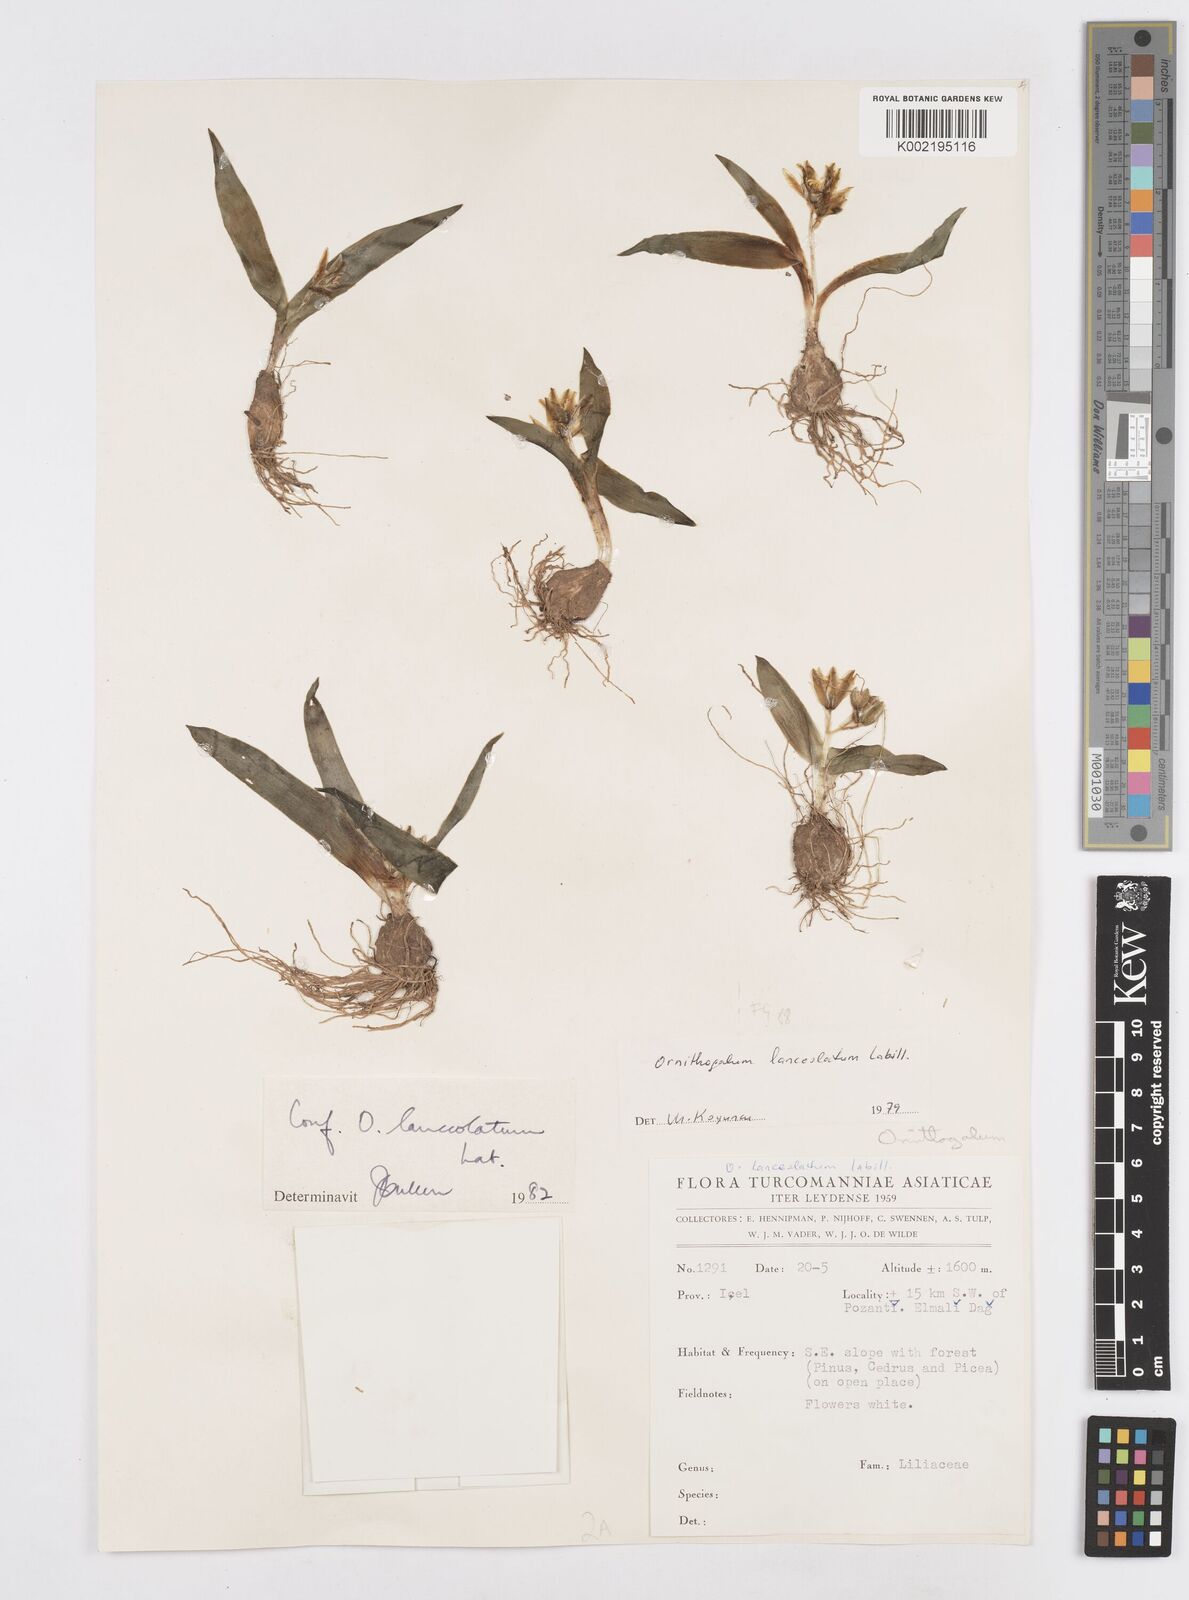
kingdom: Plantae
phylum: Tracheophyta
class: Liliopsida
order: Asparagales
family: Asparagaceae
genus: Ornithogalum
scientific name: Ornithogalum lanceolatum
